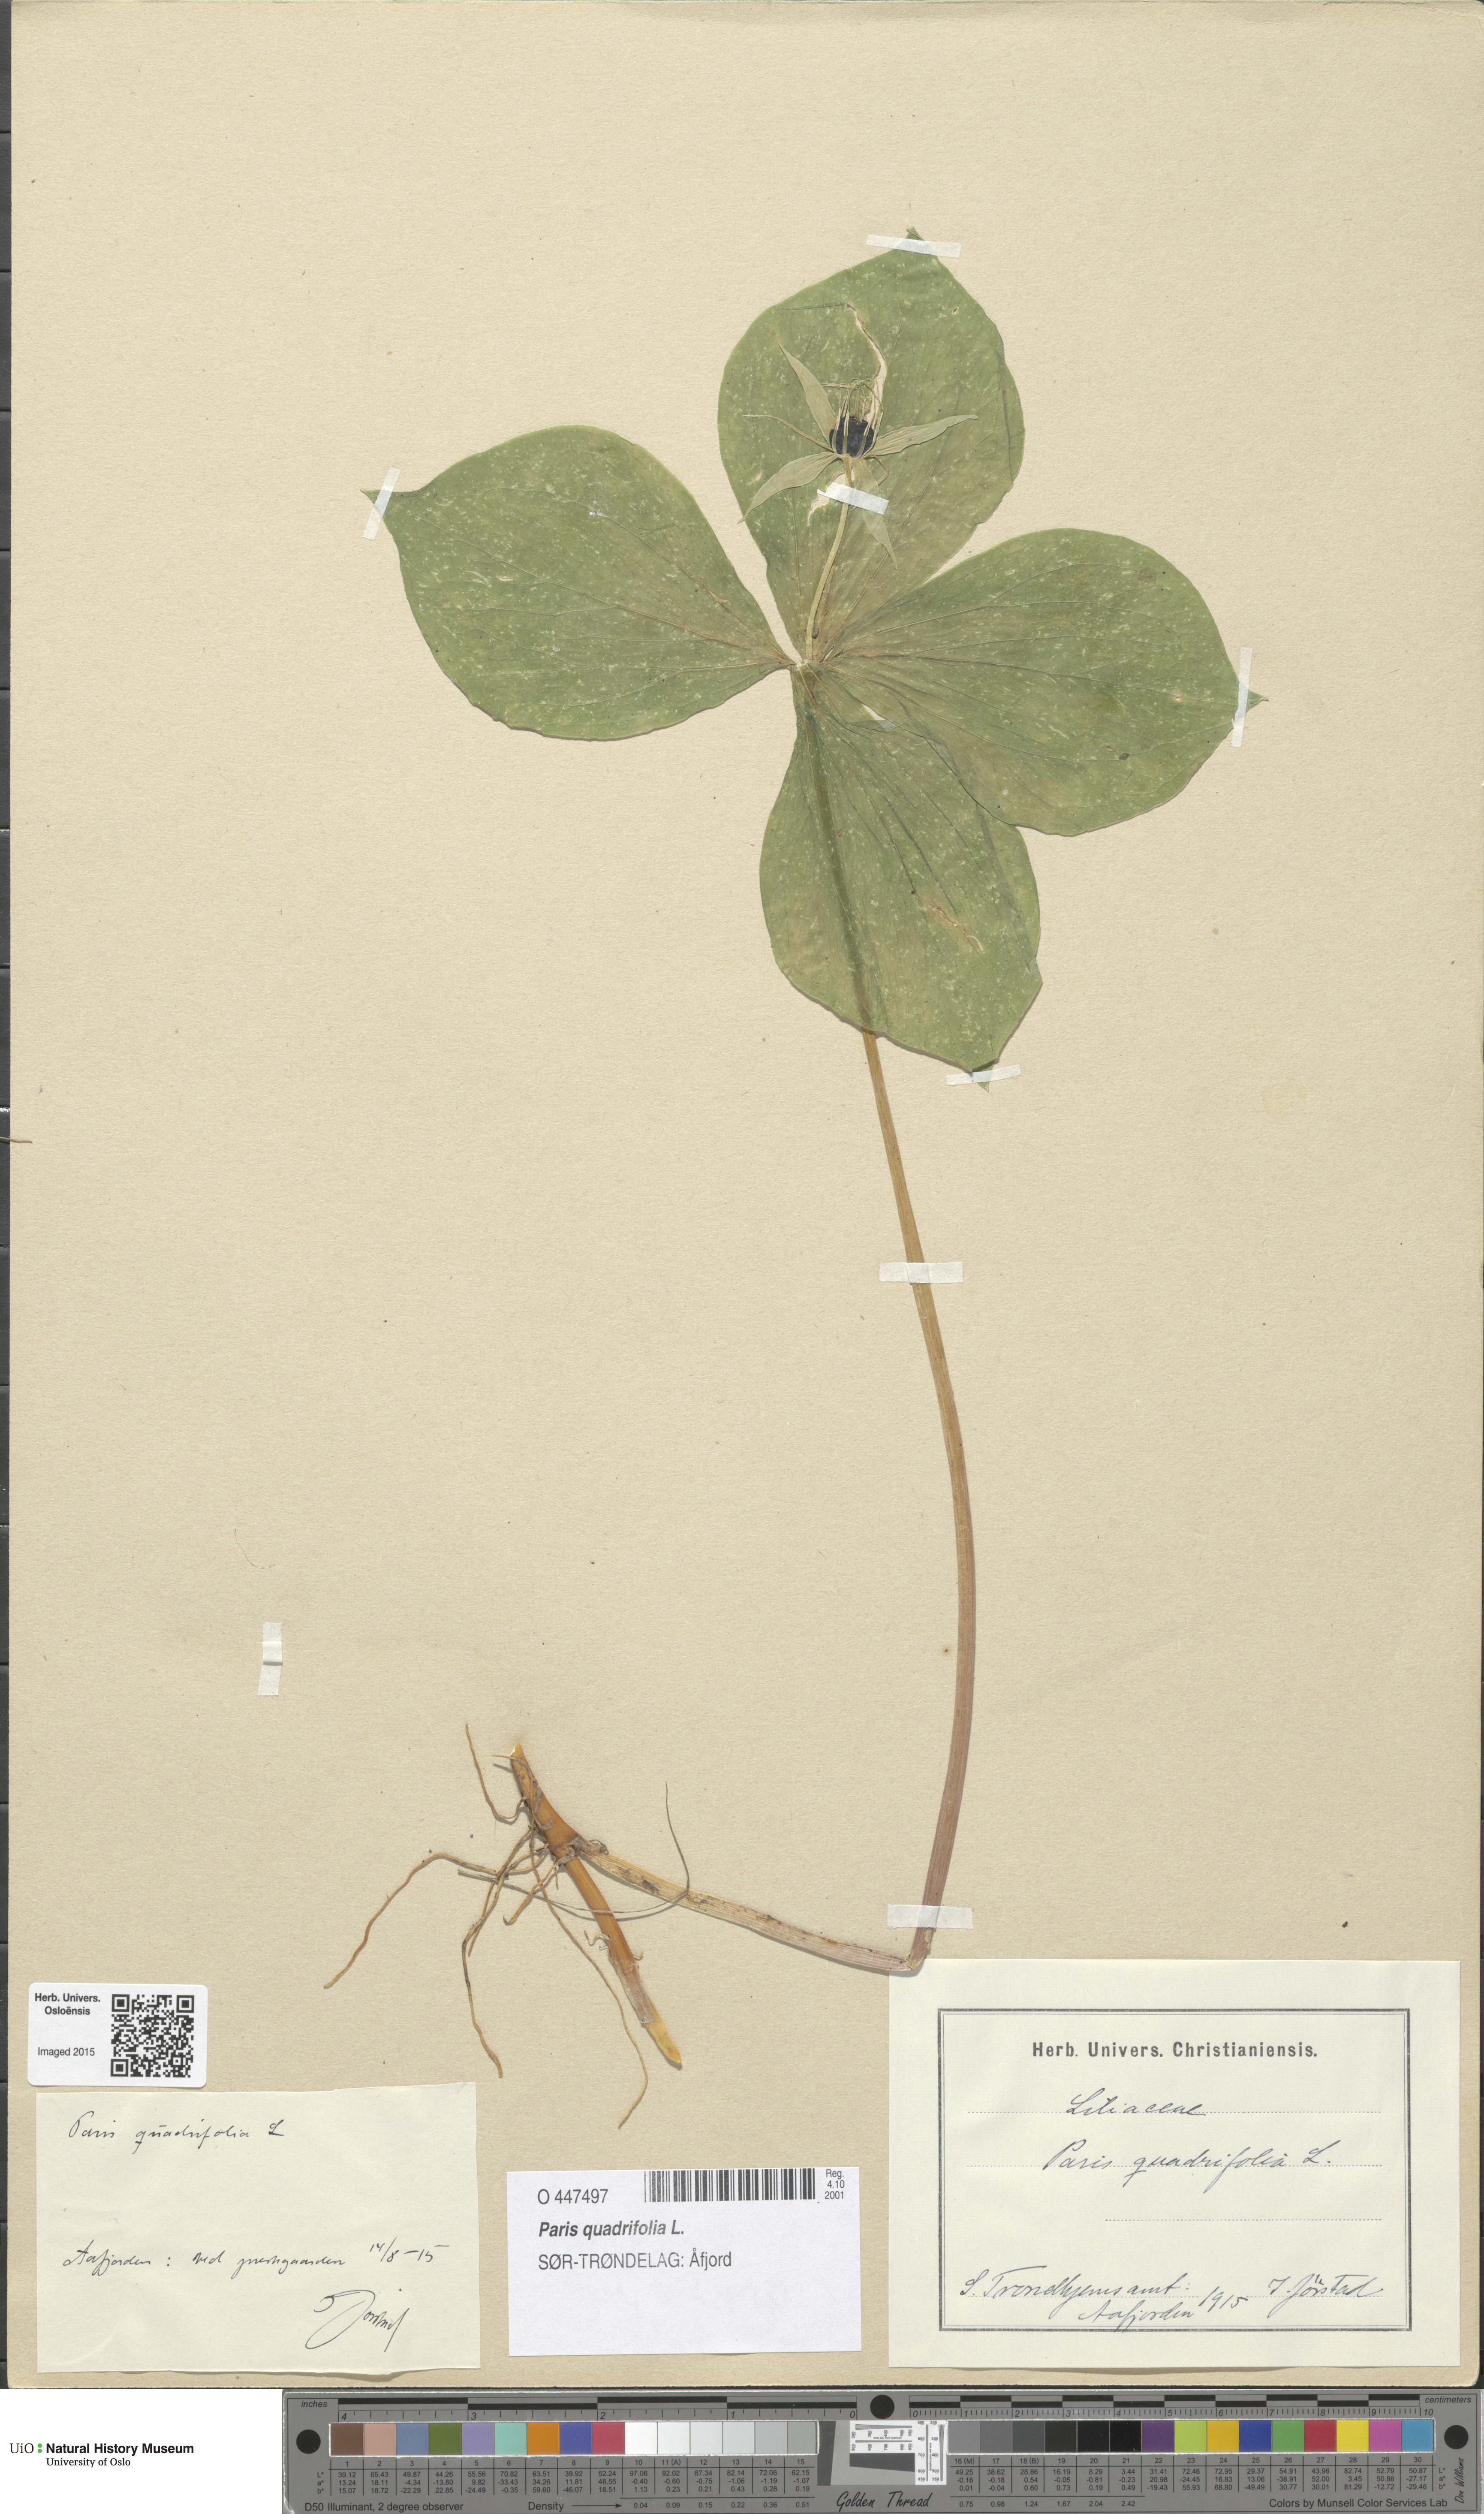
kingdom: Plantae
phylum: Tracheophyta
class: Liliopsida
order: Liliales
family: Melanthiaceae
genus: Paris
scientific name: Paris quadrifolia
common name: Herb-paris
